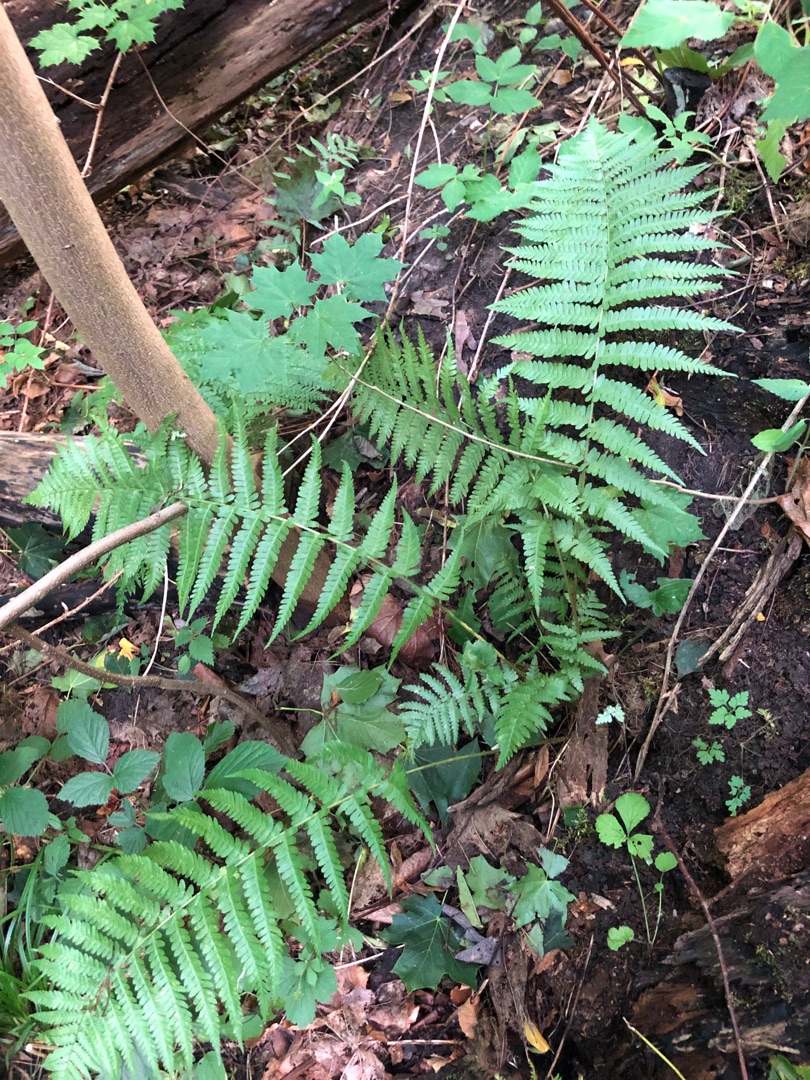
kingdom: Plantae
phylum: Tracheophyta
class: Polypodiopsida
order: Polypodiales
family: Dryopteridaceae
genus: Dryopteris
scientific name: Dryopteris filix-mas
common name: Almindelig mangeløv
